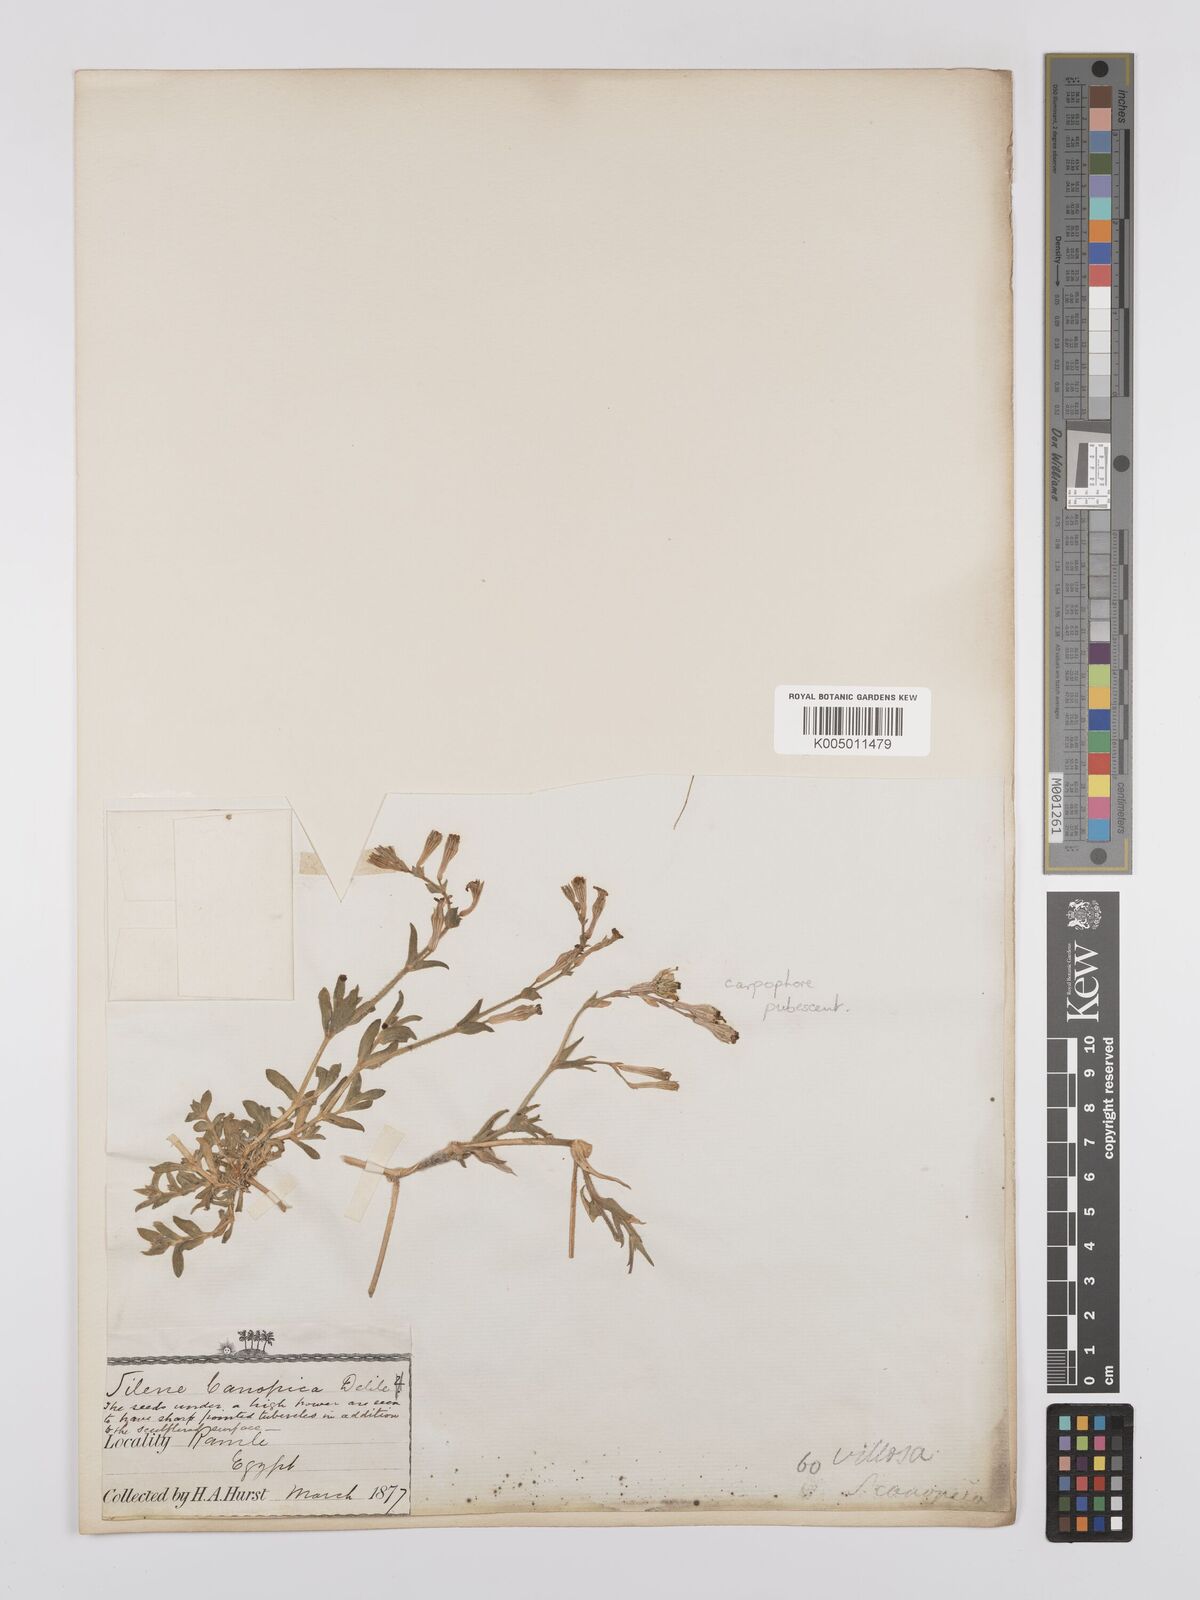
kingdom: Plantae
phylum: Tracheophyta
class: Magnoliopsida
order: Caryophyllales
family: Caryophyllaceae
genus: Silene
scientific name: Silene biappendiculata
